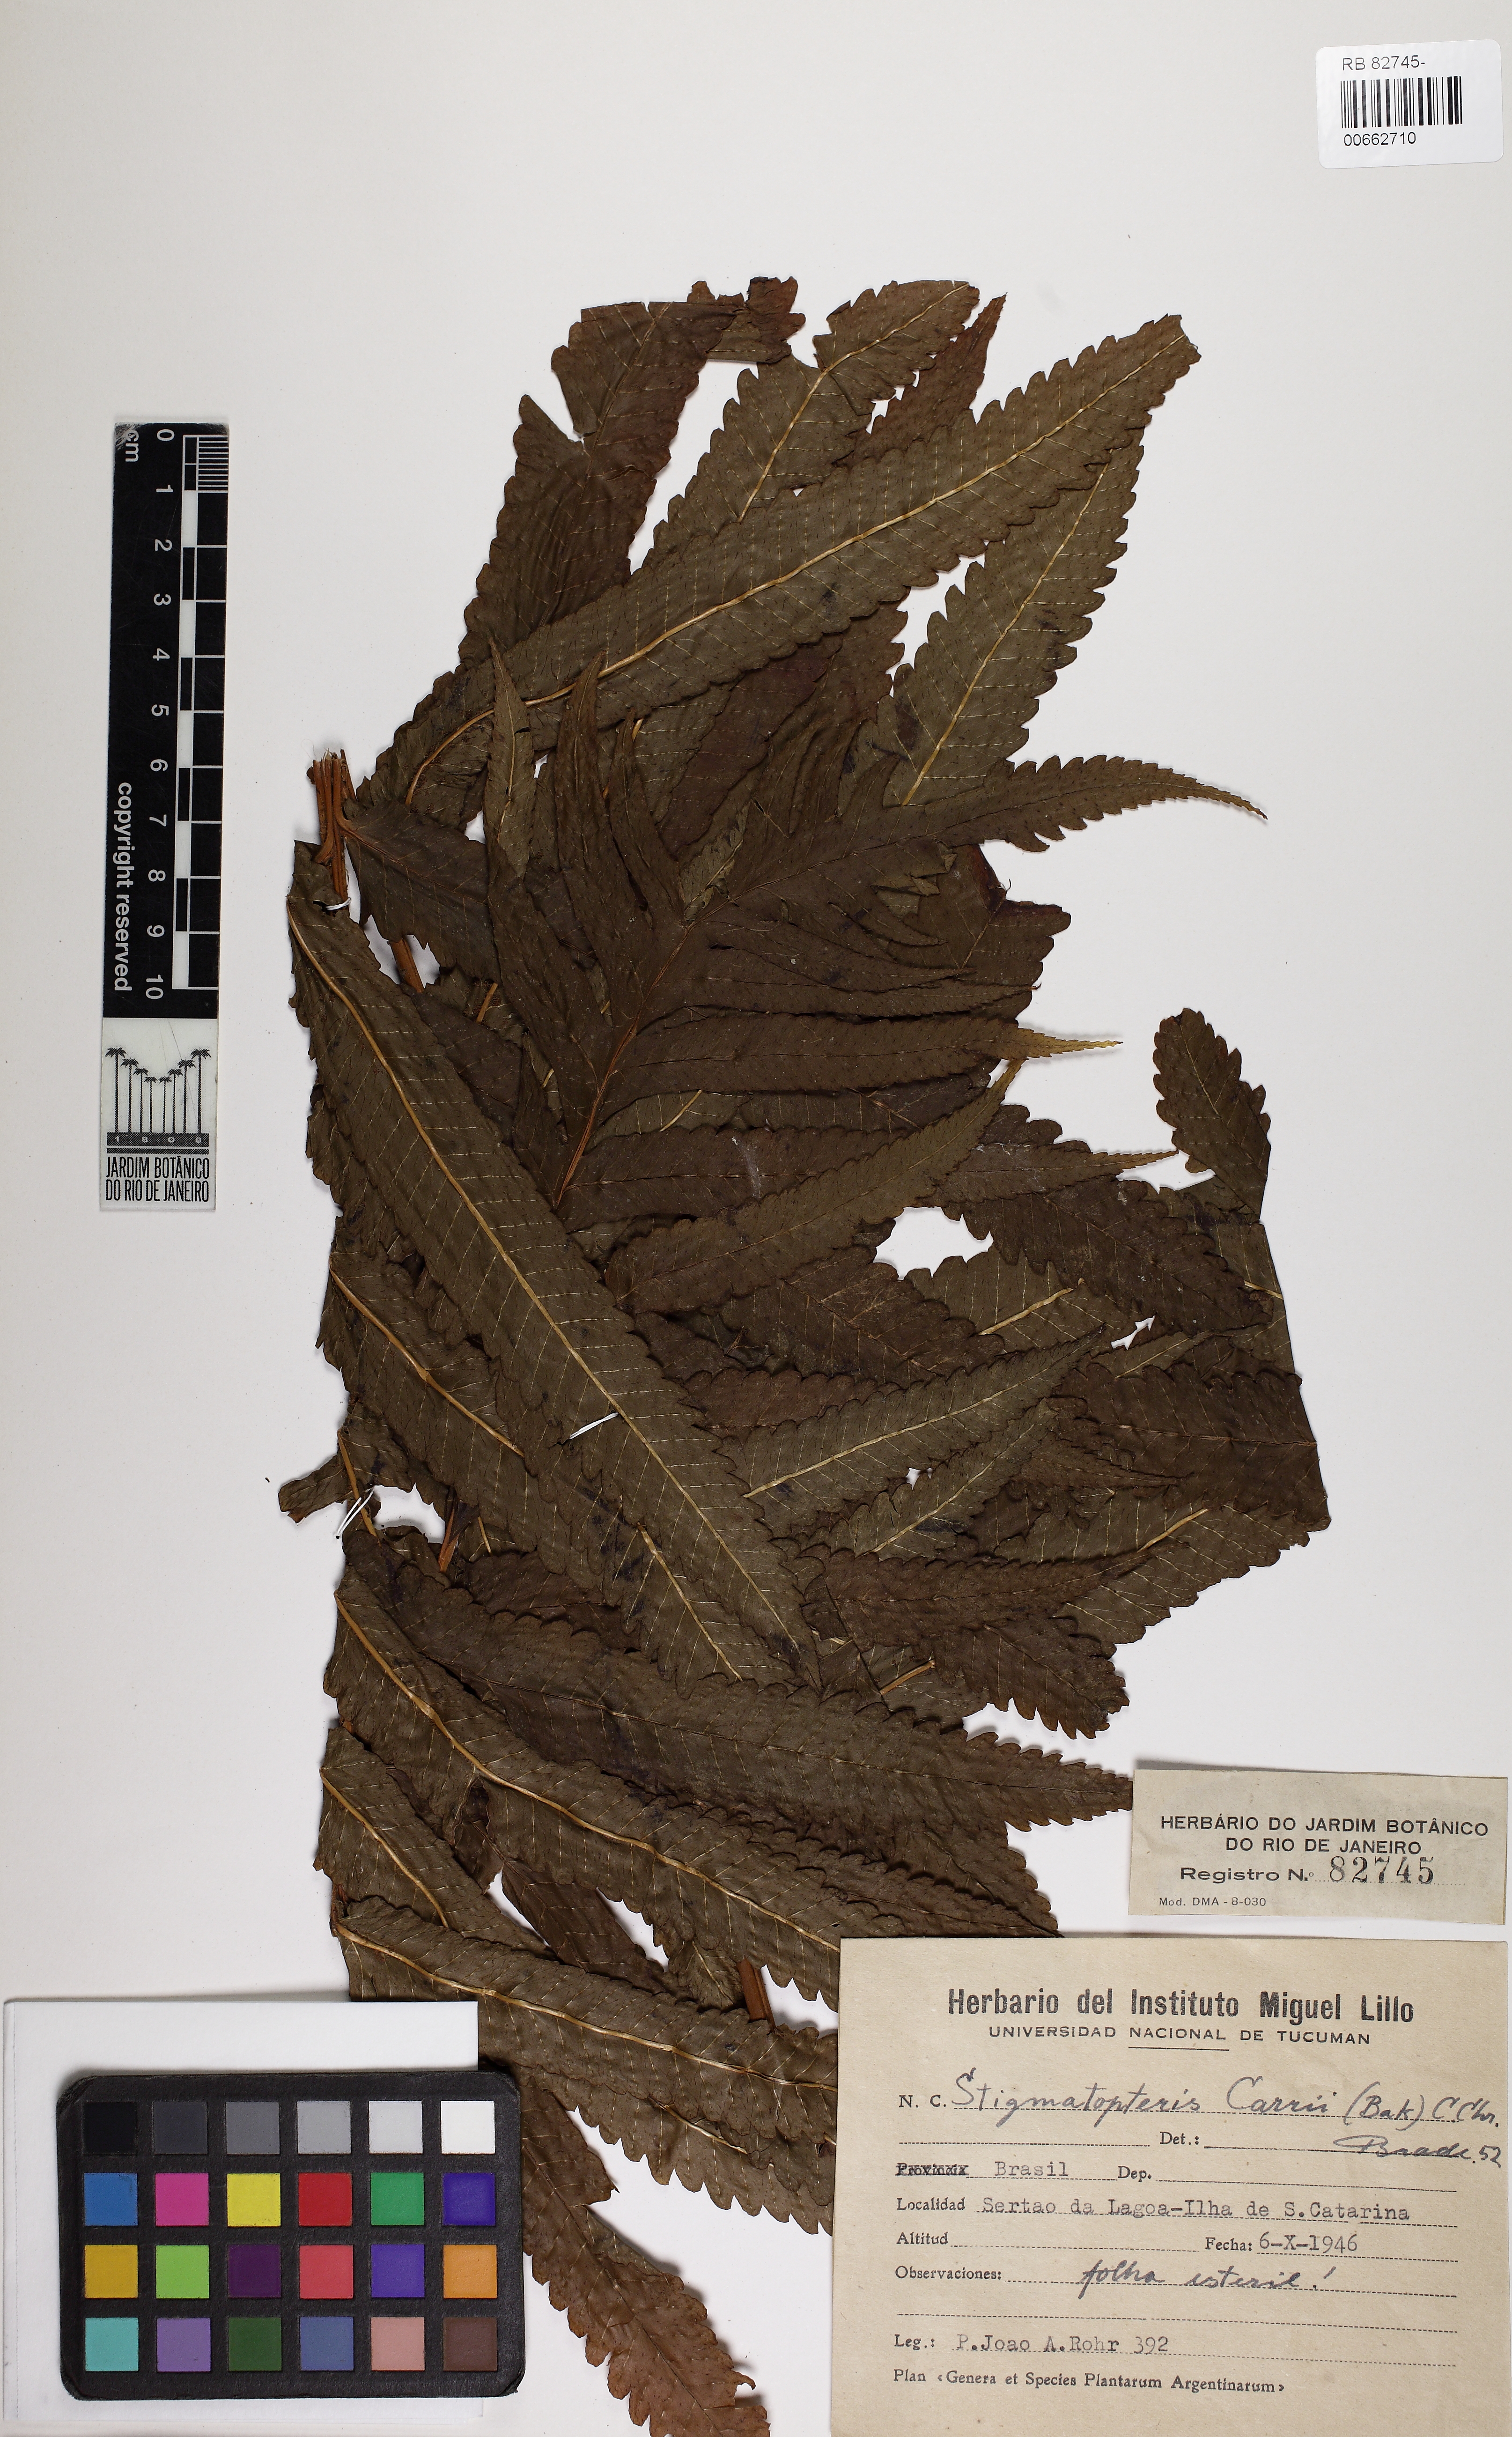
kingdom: Plantae
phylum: Tracheophyta
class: Polypodiopsida
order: Polypodiales
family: Dryopteridaceae
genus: Stigmatopteris
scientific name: Stigmatopteris heterocarpa
